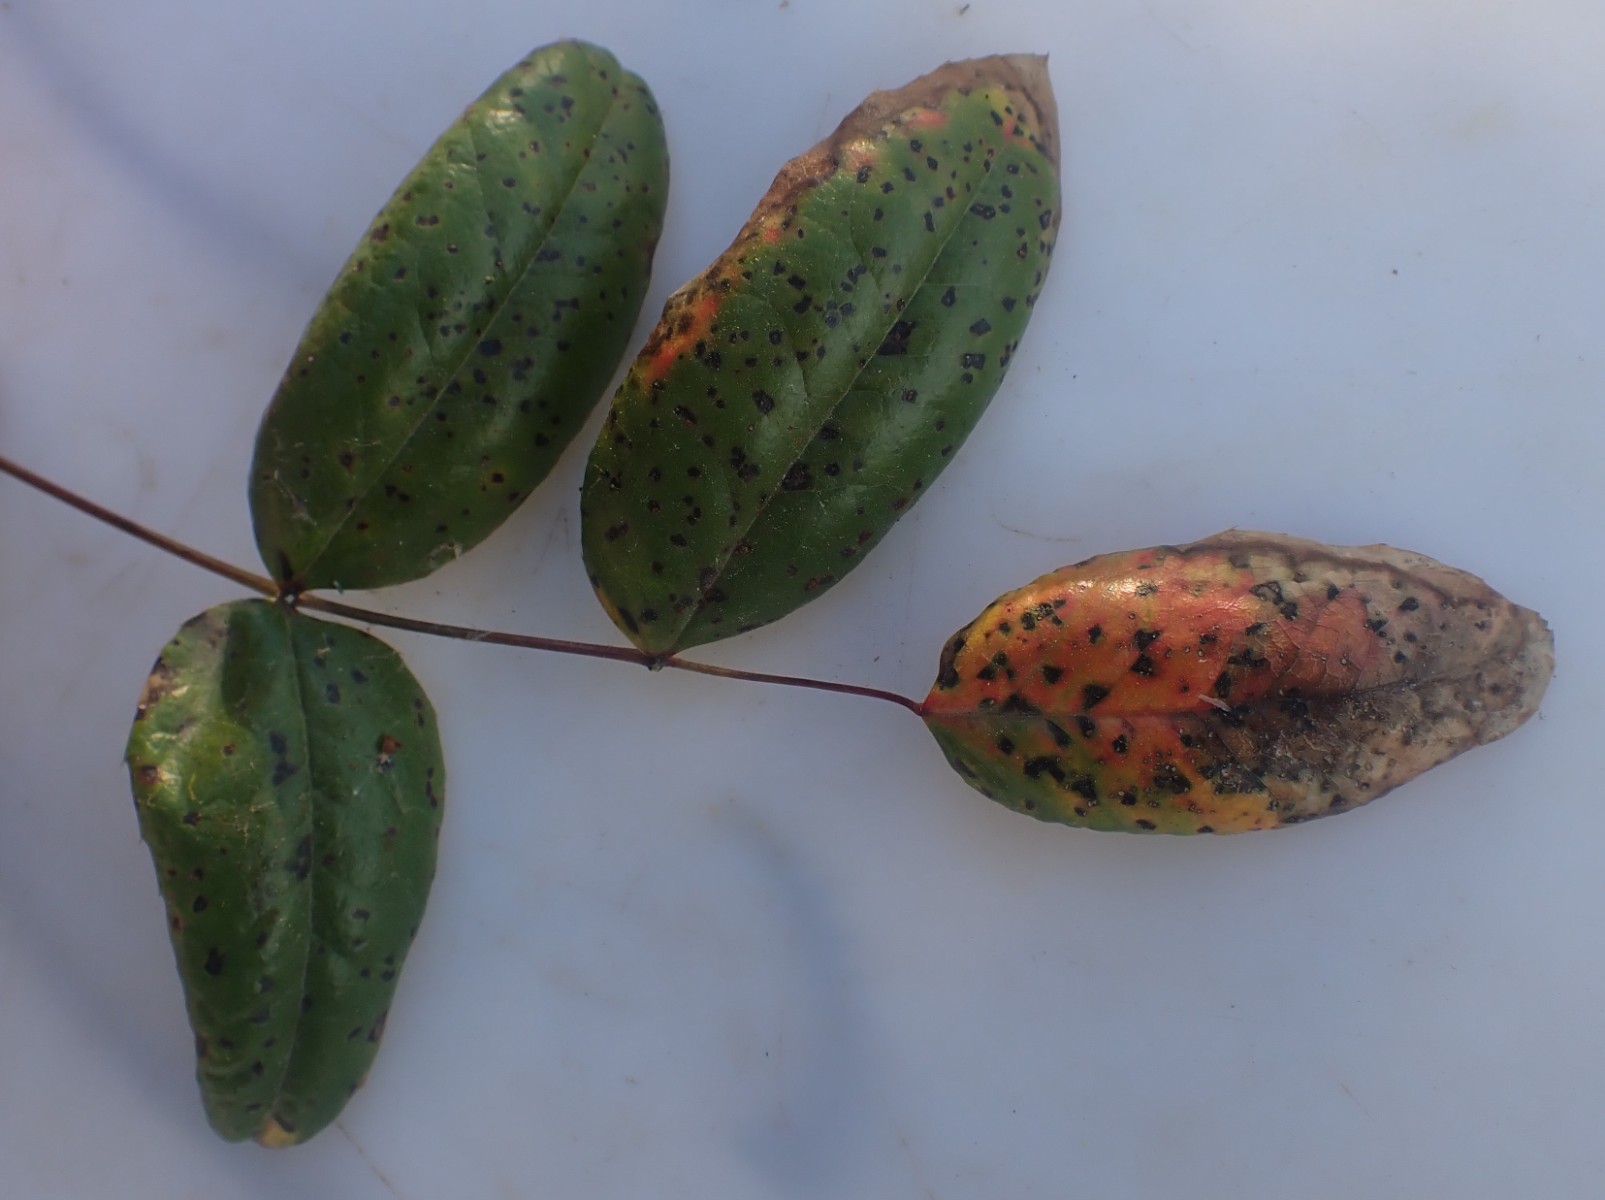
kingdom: Fungi
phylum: Basidiomycota
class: Pucciniomycetes
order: Pucciniales
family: Pucciniaceae
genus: Cumminsiella
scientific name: Cumminsiella mirabilissima
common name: mahonierust
